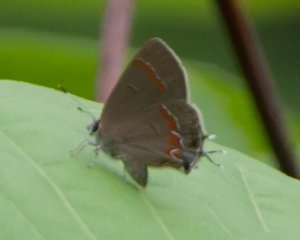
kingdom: Animalia
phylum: Arthropoda
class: Insecta
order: Lepidoptera
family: Lycaenidae
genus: Calycopis
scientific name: Calycopis cecrops
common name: Red-banded Hairstreak
